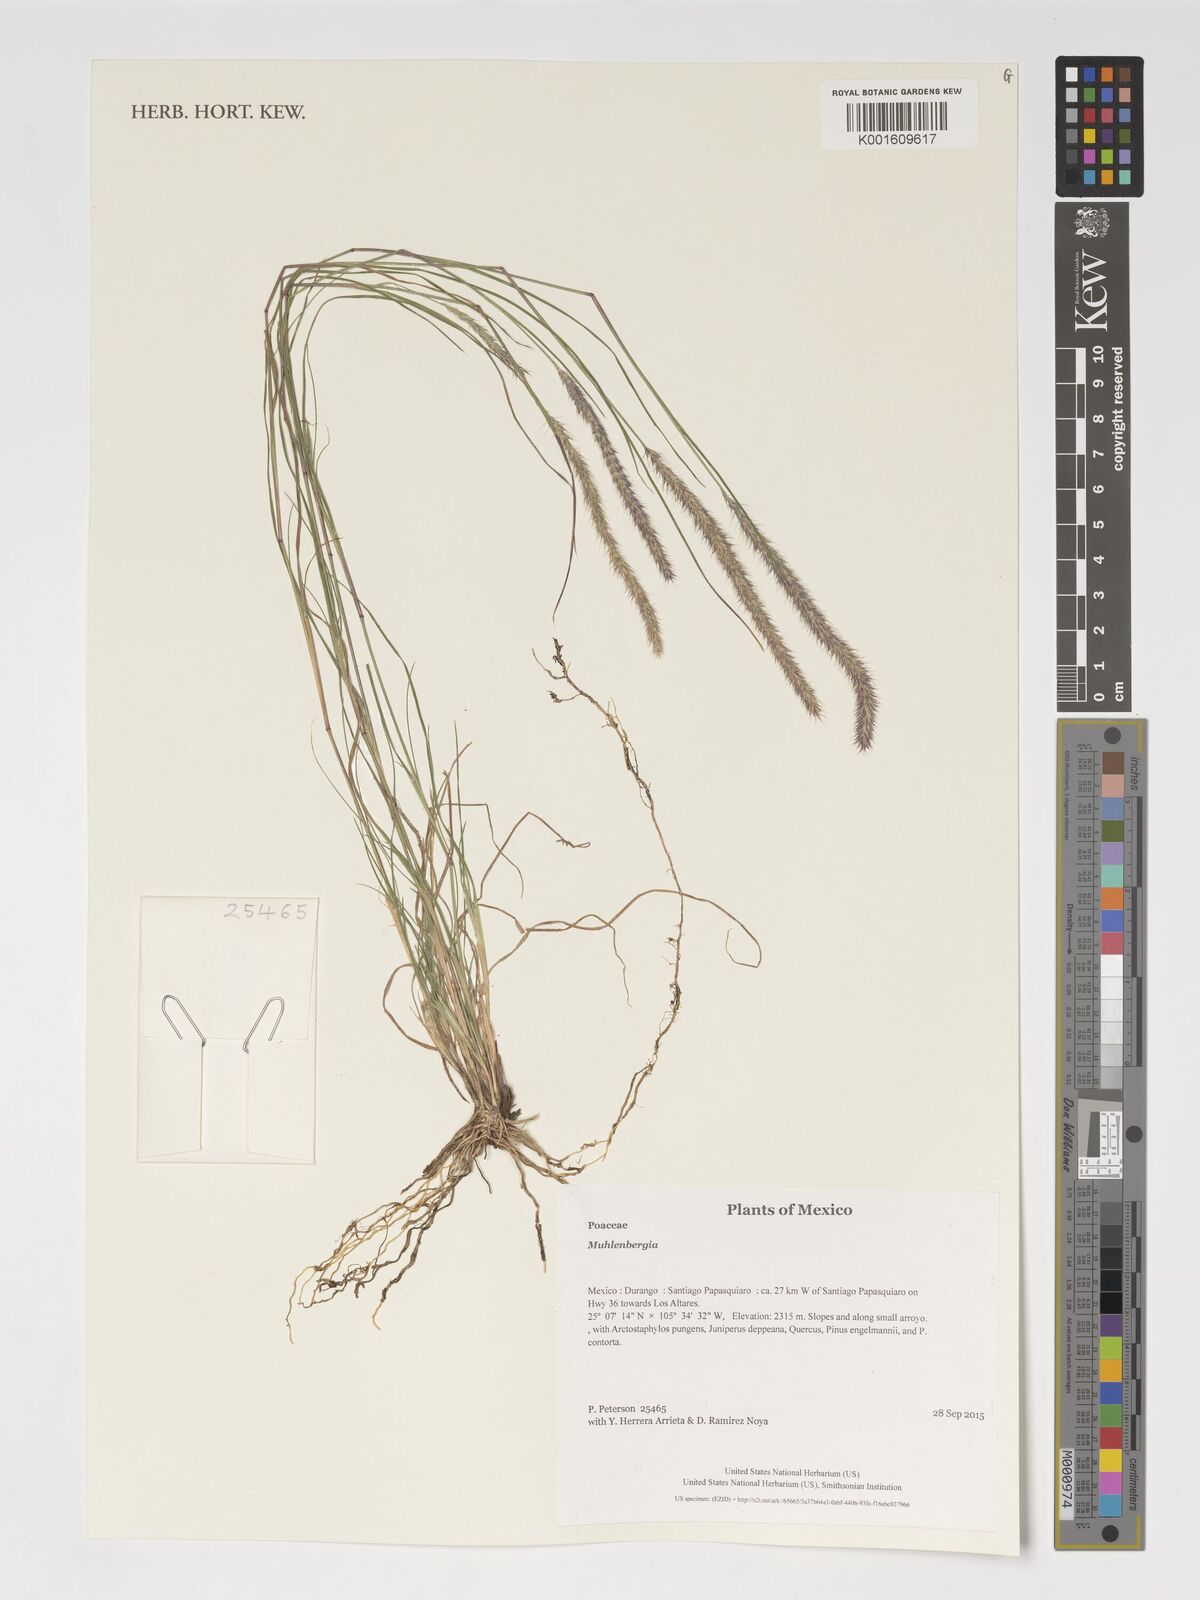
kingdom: Plantae
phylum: Tracheophyta
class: Liliopsida
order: Poales
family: Poaceae
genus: Muhlenbergia
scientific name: Muhlenbergia
